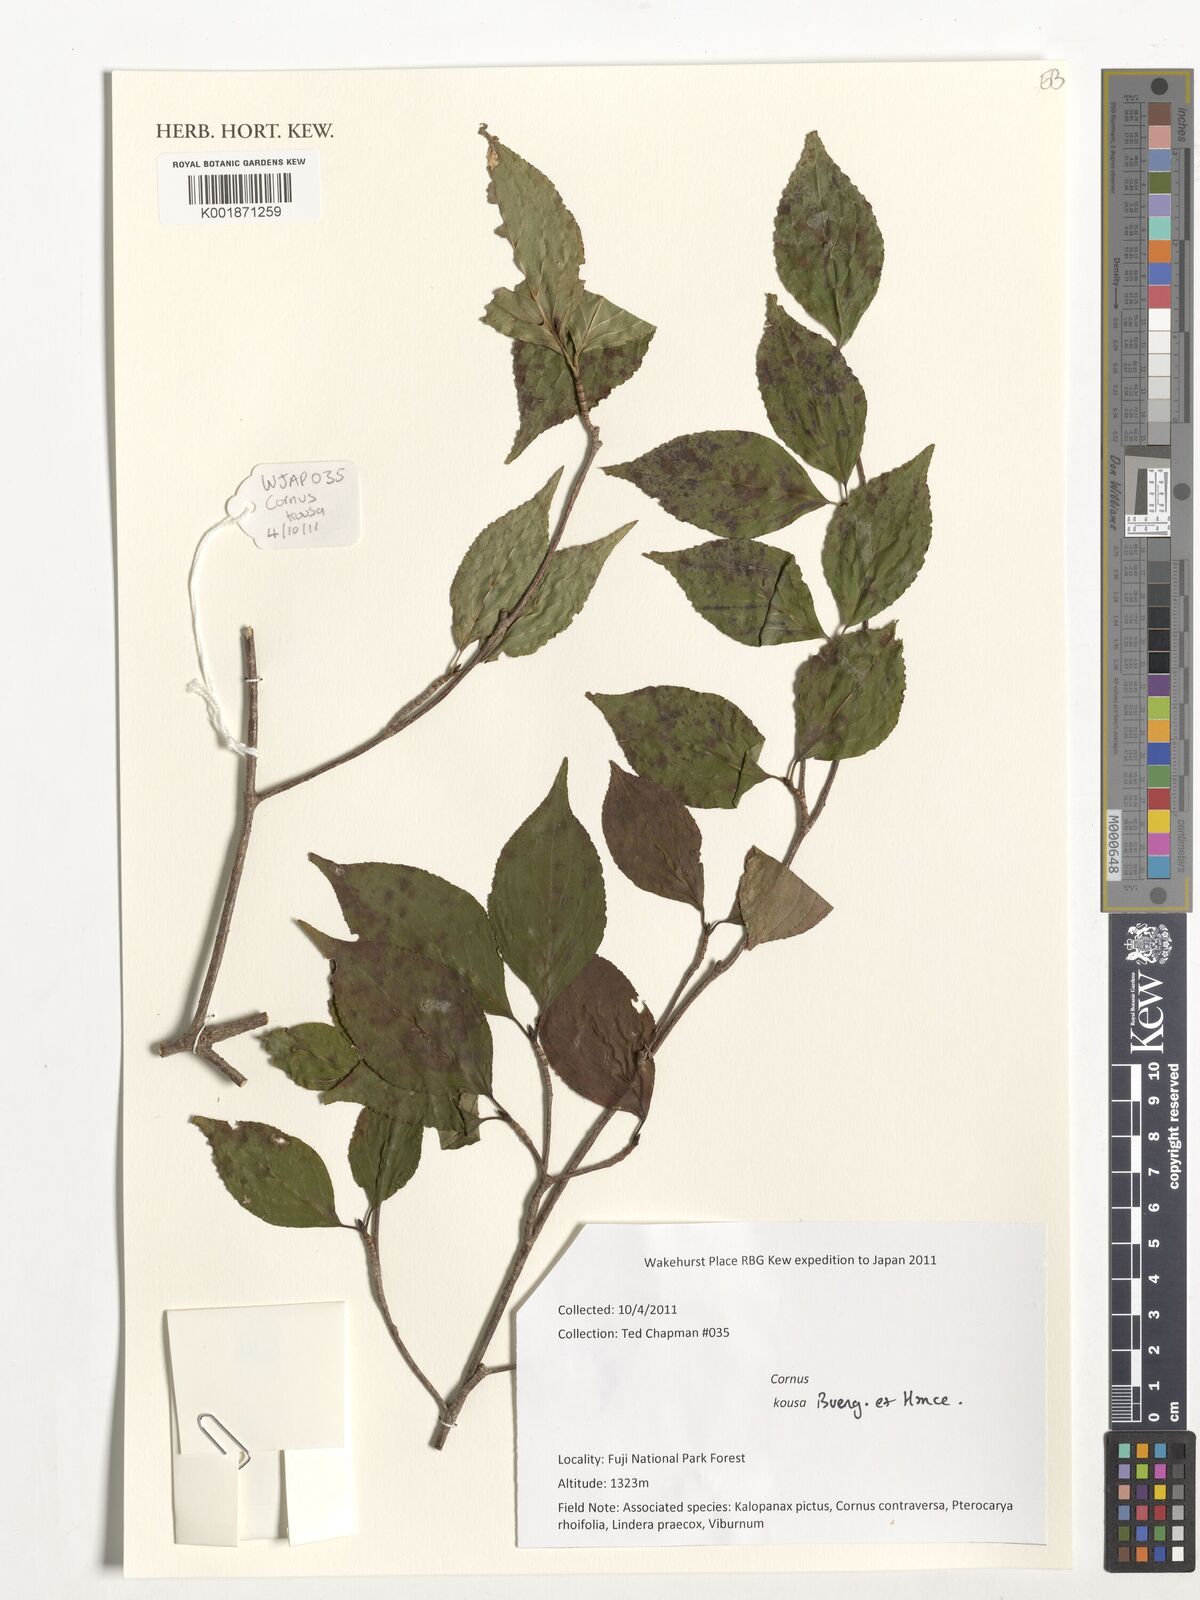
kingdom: Plantae
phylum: Tracheophyta
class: Magnoliopsida
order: Cornales
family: Cornaceae
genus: Cornus
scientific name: Cornus kousa
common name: Japanese dogwood
